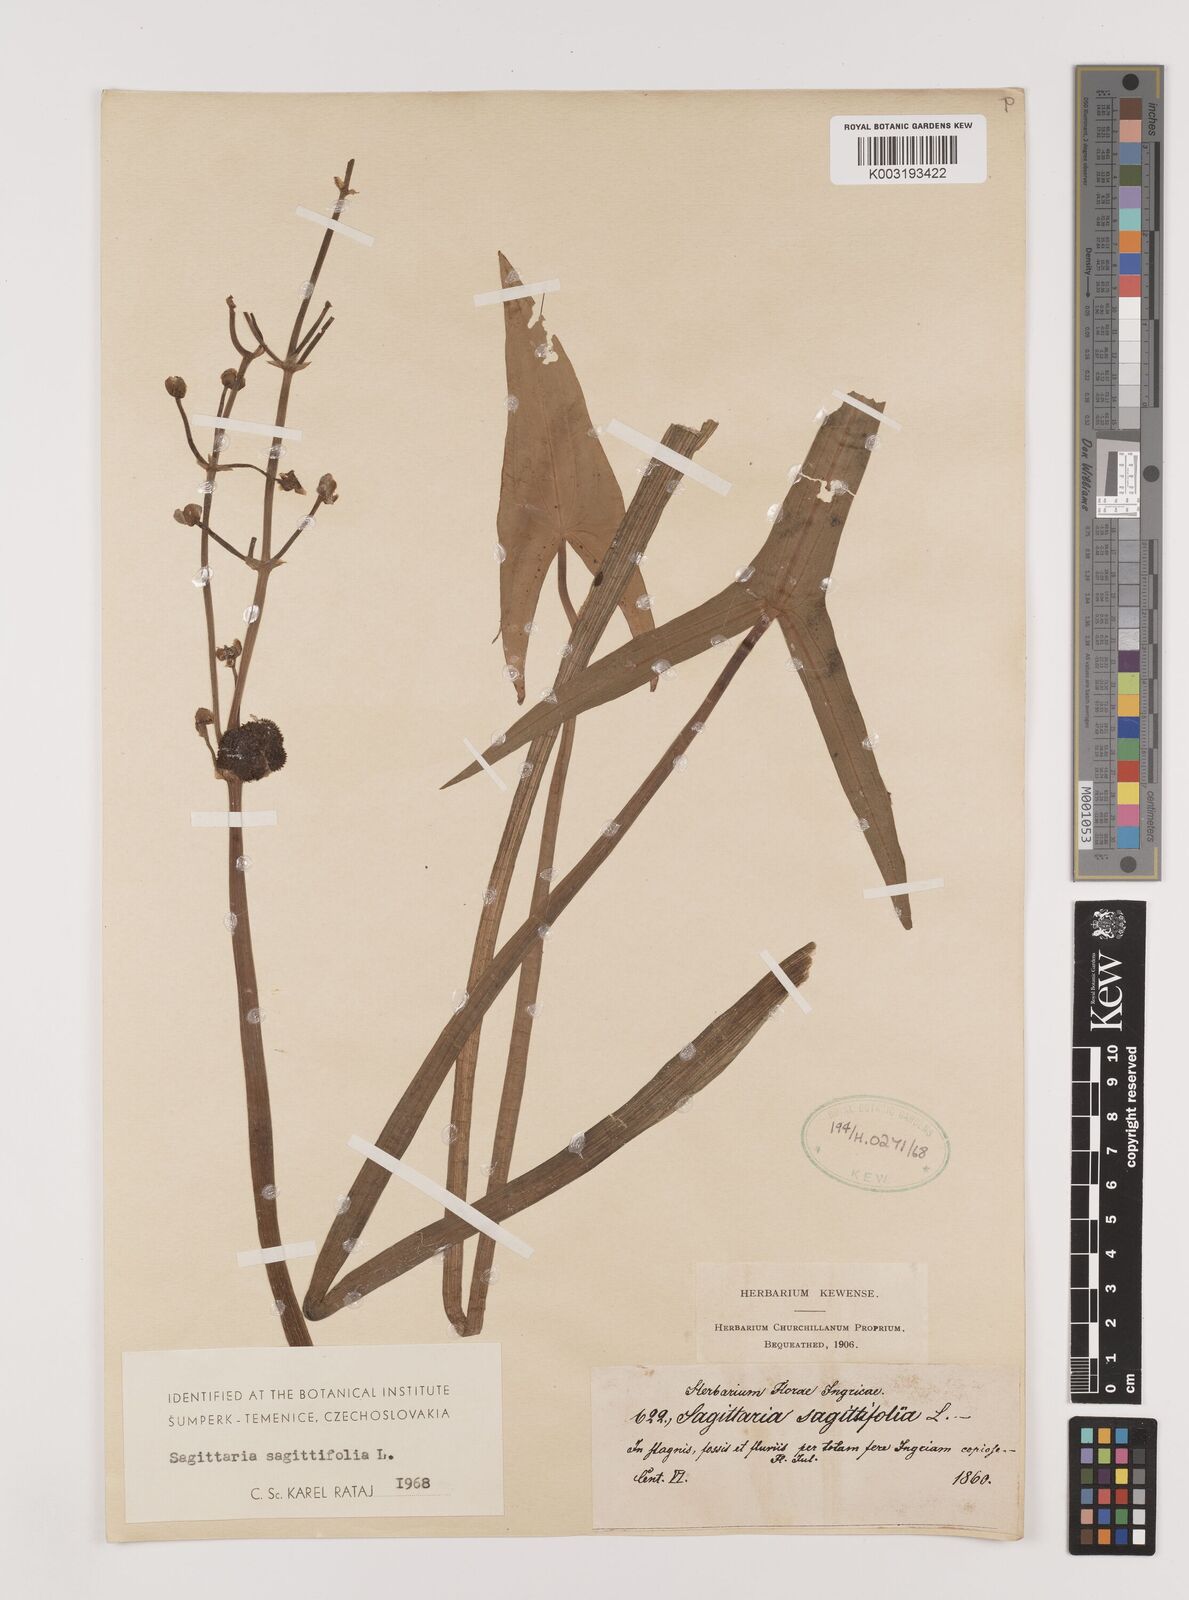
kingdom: Plantae
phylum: Tracheophyta
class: Liliopsida
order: Alismatales
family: Alismataceae
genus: Sagittaria
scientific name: Sagittaria sagittifolia
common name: Arrowhead
